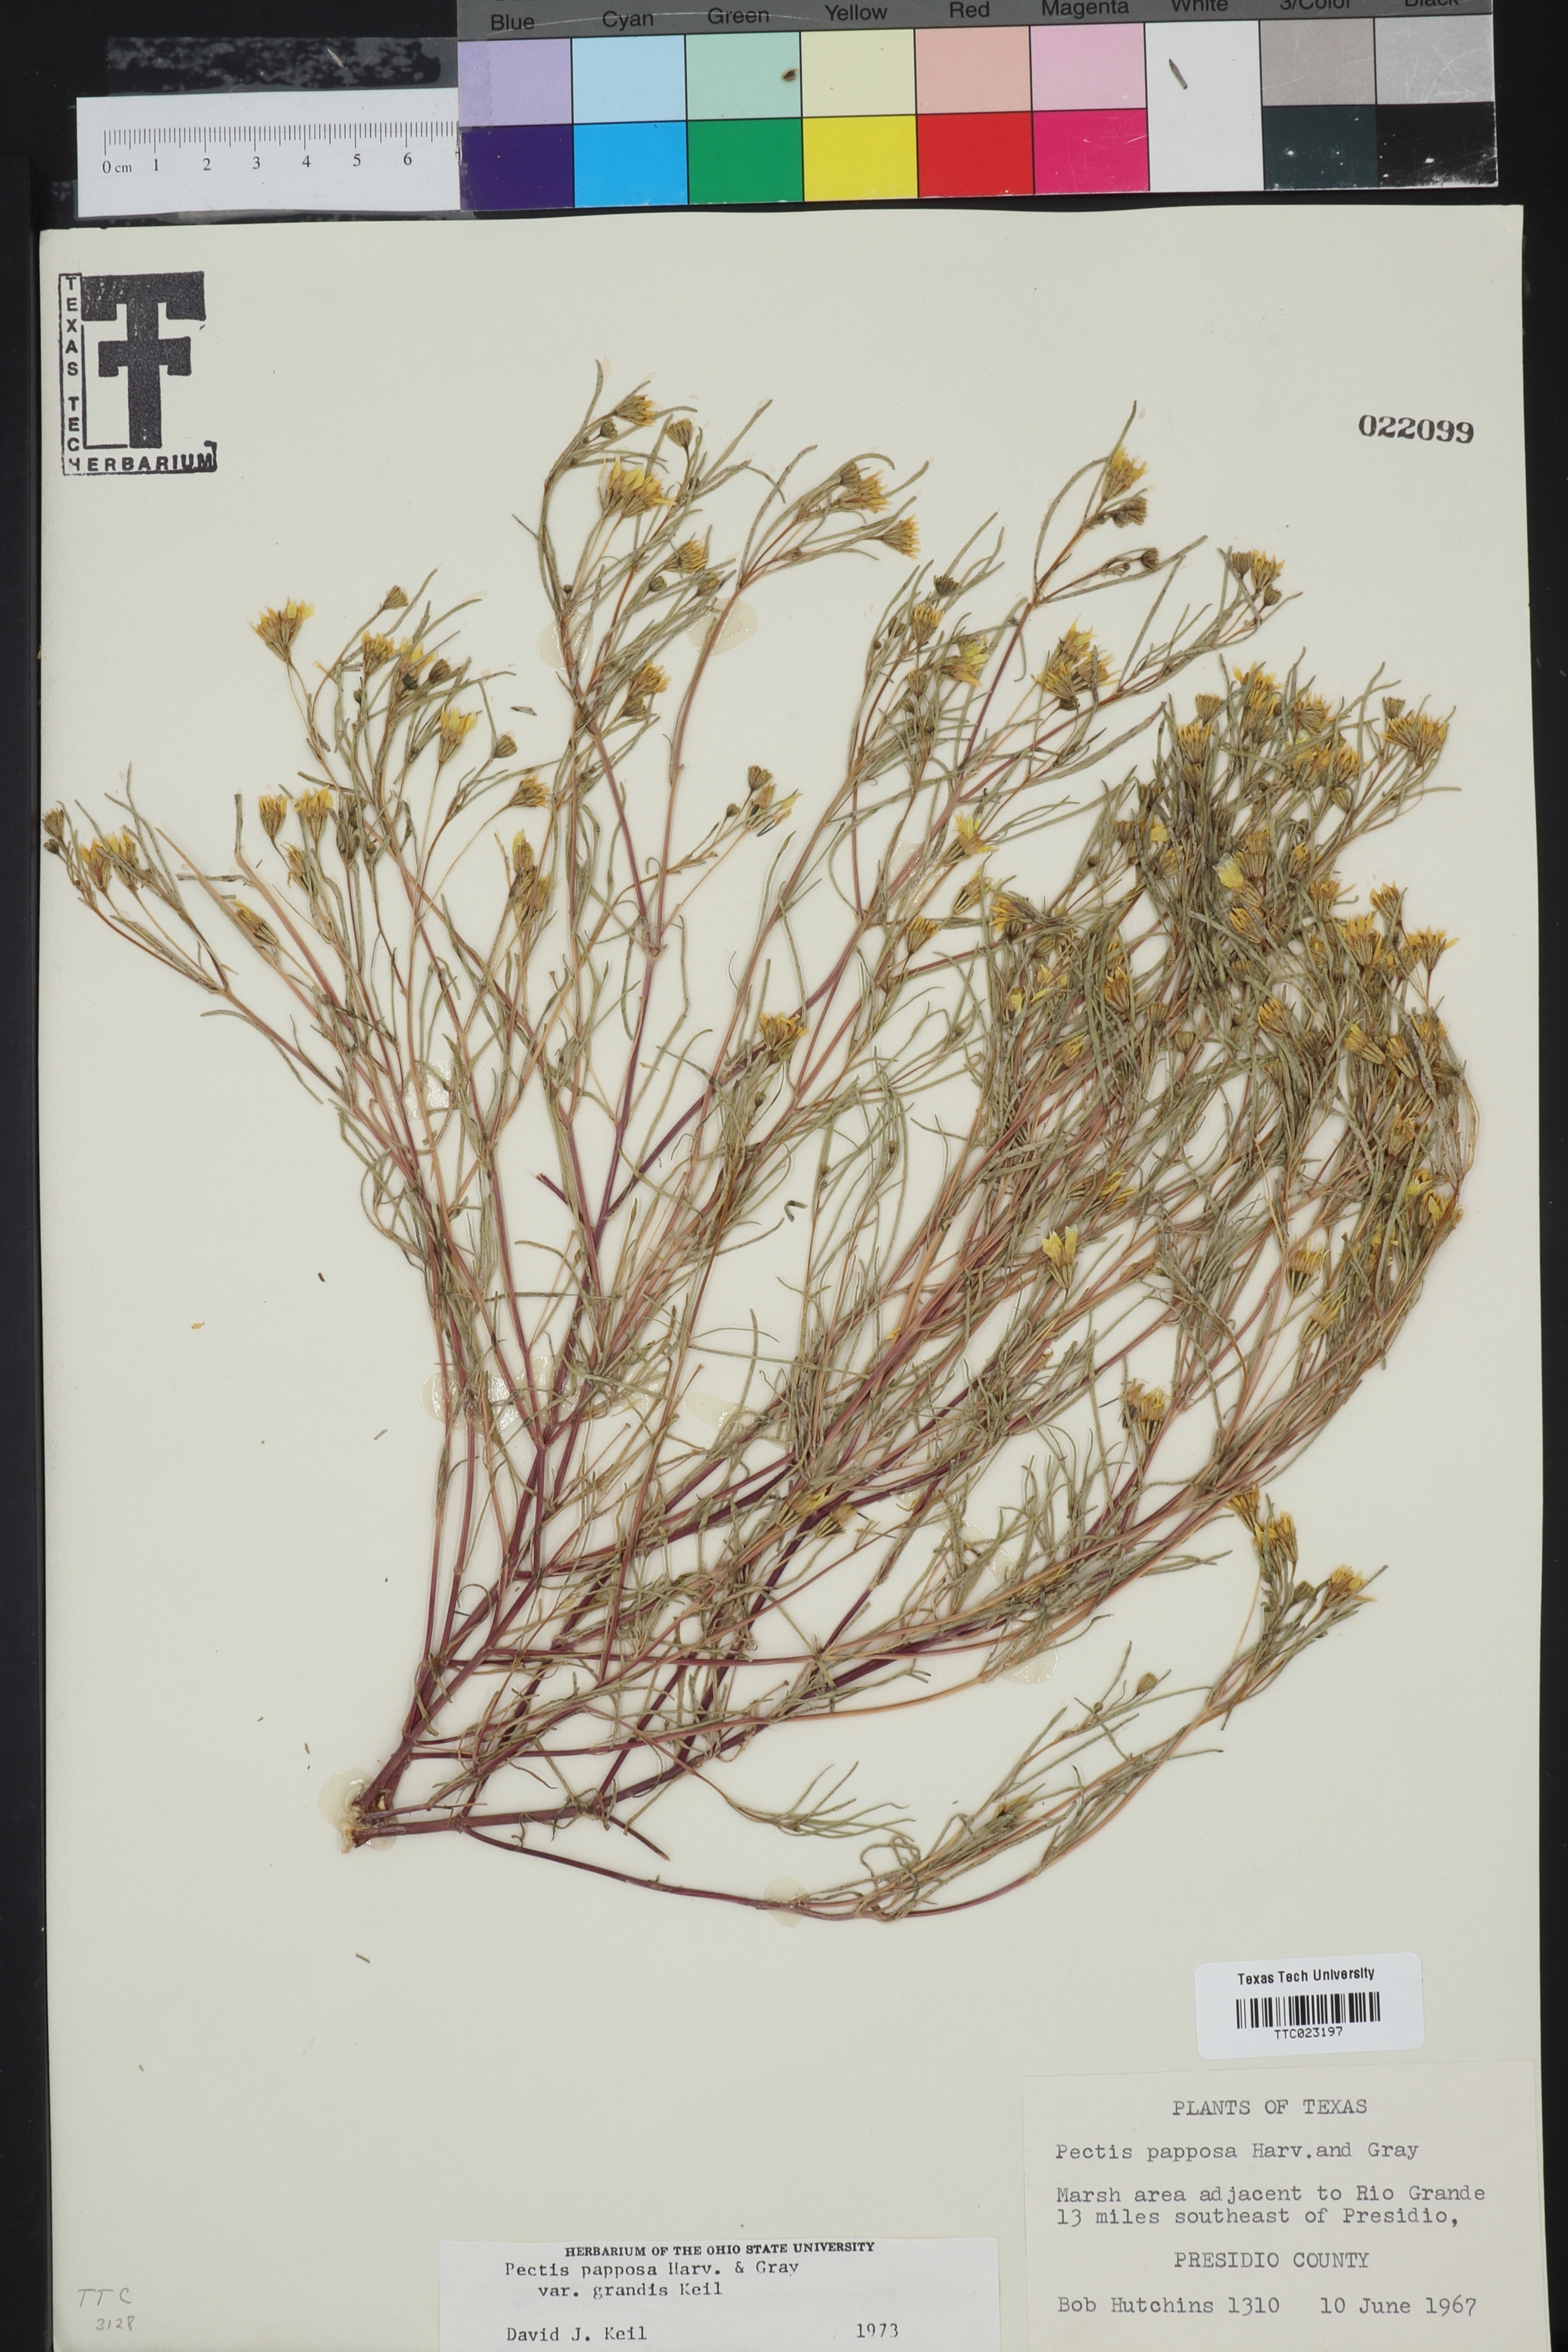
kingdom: Plantae
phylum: Tracheophyta
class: Magnoliopsida
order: Asterales
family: Asteraceae
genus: Pectis
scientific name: Pectis papposa
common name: Many-bristle chinchweed
